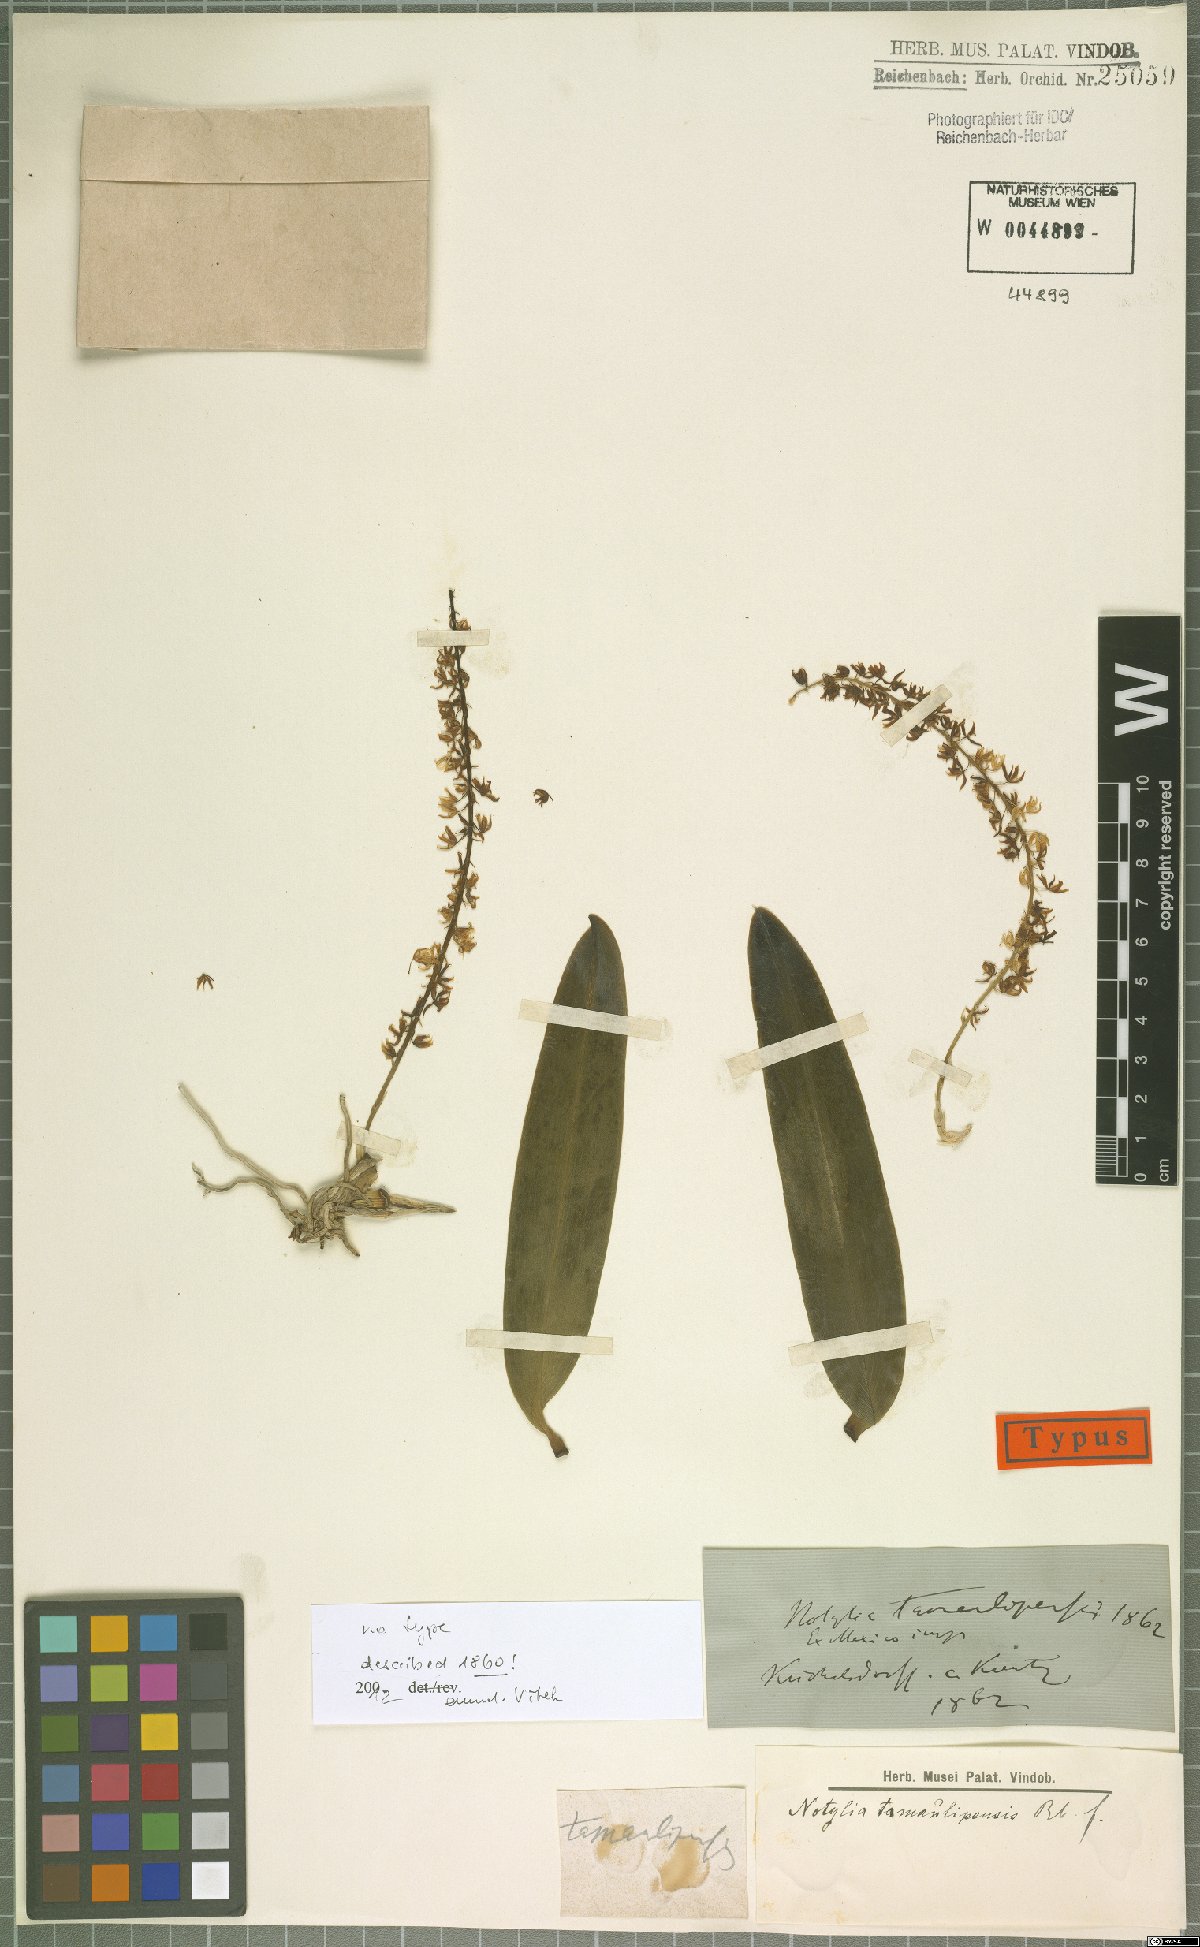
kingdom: Plantae
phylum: Tracheophyta
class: Liliopsida
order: Asparagales
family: Orchidaceae
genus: Notylia
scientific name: Notylia tamaulipensis
